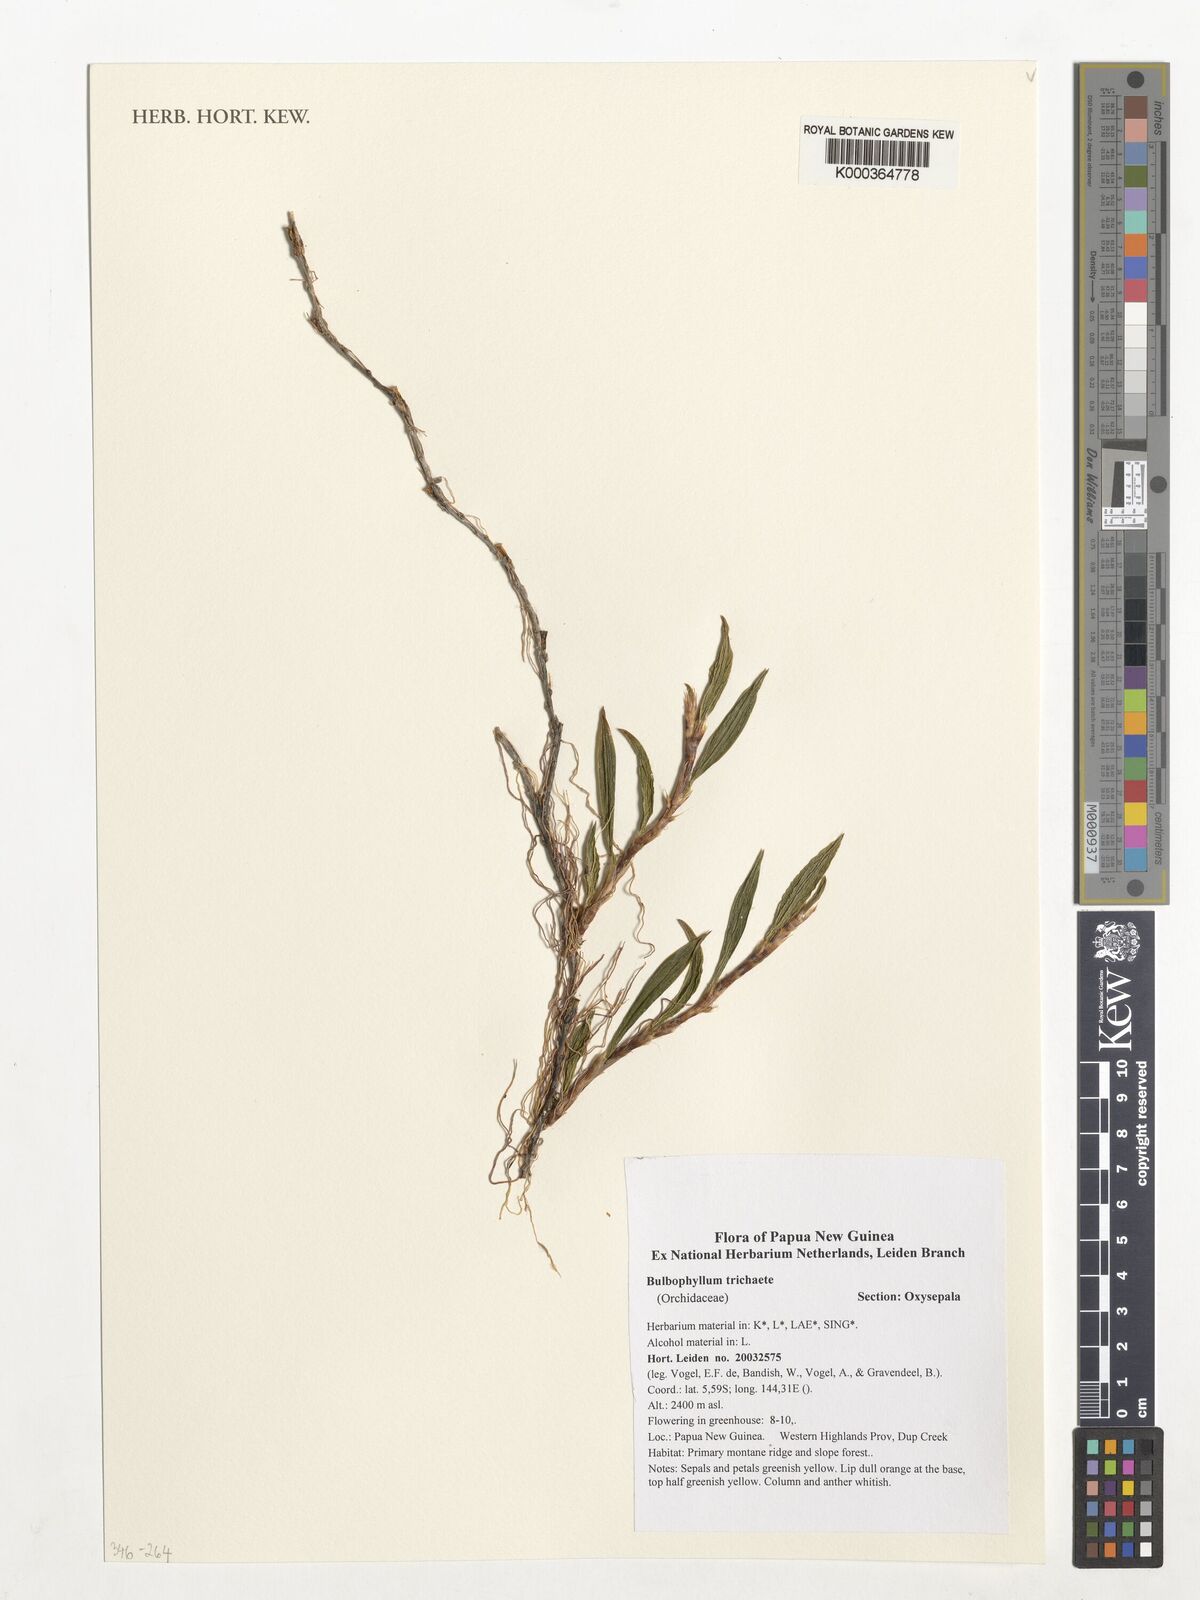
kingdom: Plantae
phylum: Tracheophyta
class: Liliopsida
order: Asparagales
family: Orchidaceae
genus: Bulbophyllum
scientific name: Bulbophyllum trichaete
